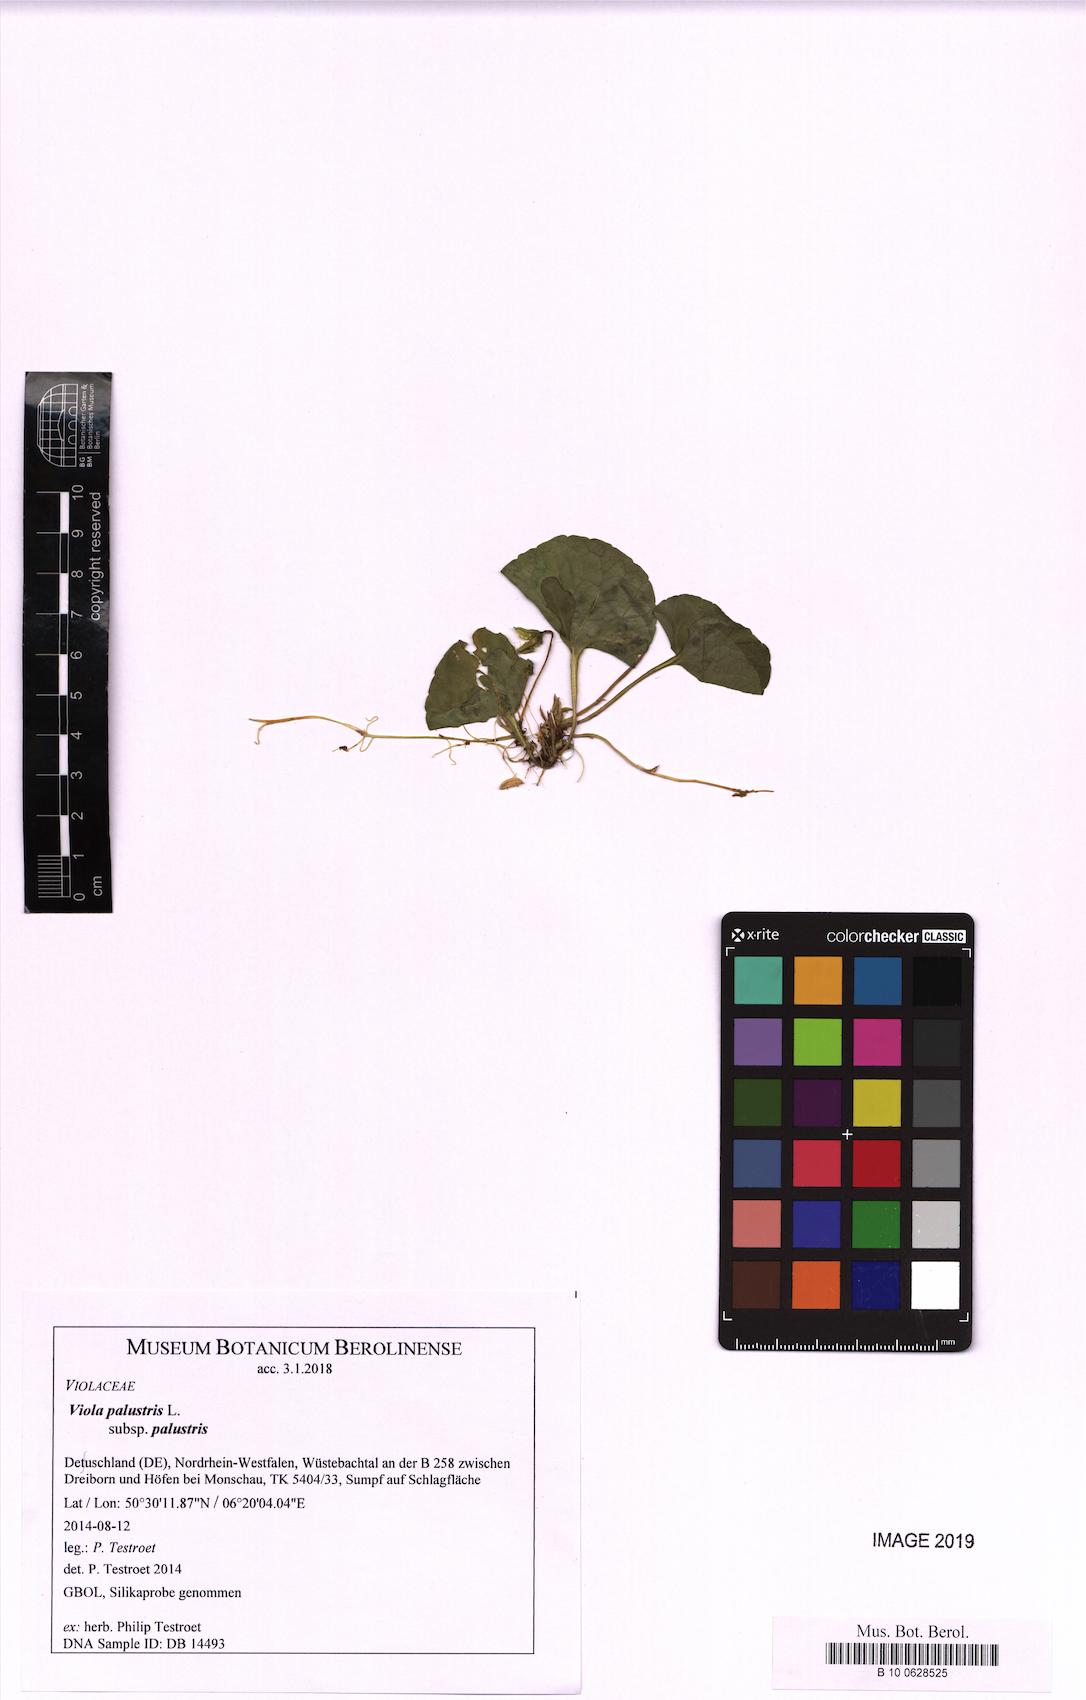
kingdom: Plantae
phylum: Tracheophyta
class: Magnoliopsida
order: Malpighiales
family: Violaceae
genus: Viola
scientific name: Viola palustris
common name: Marsh violet
